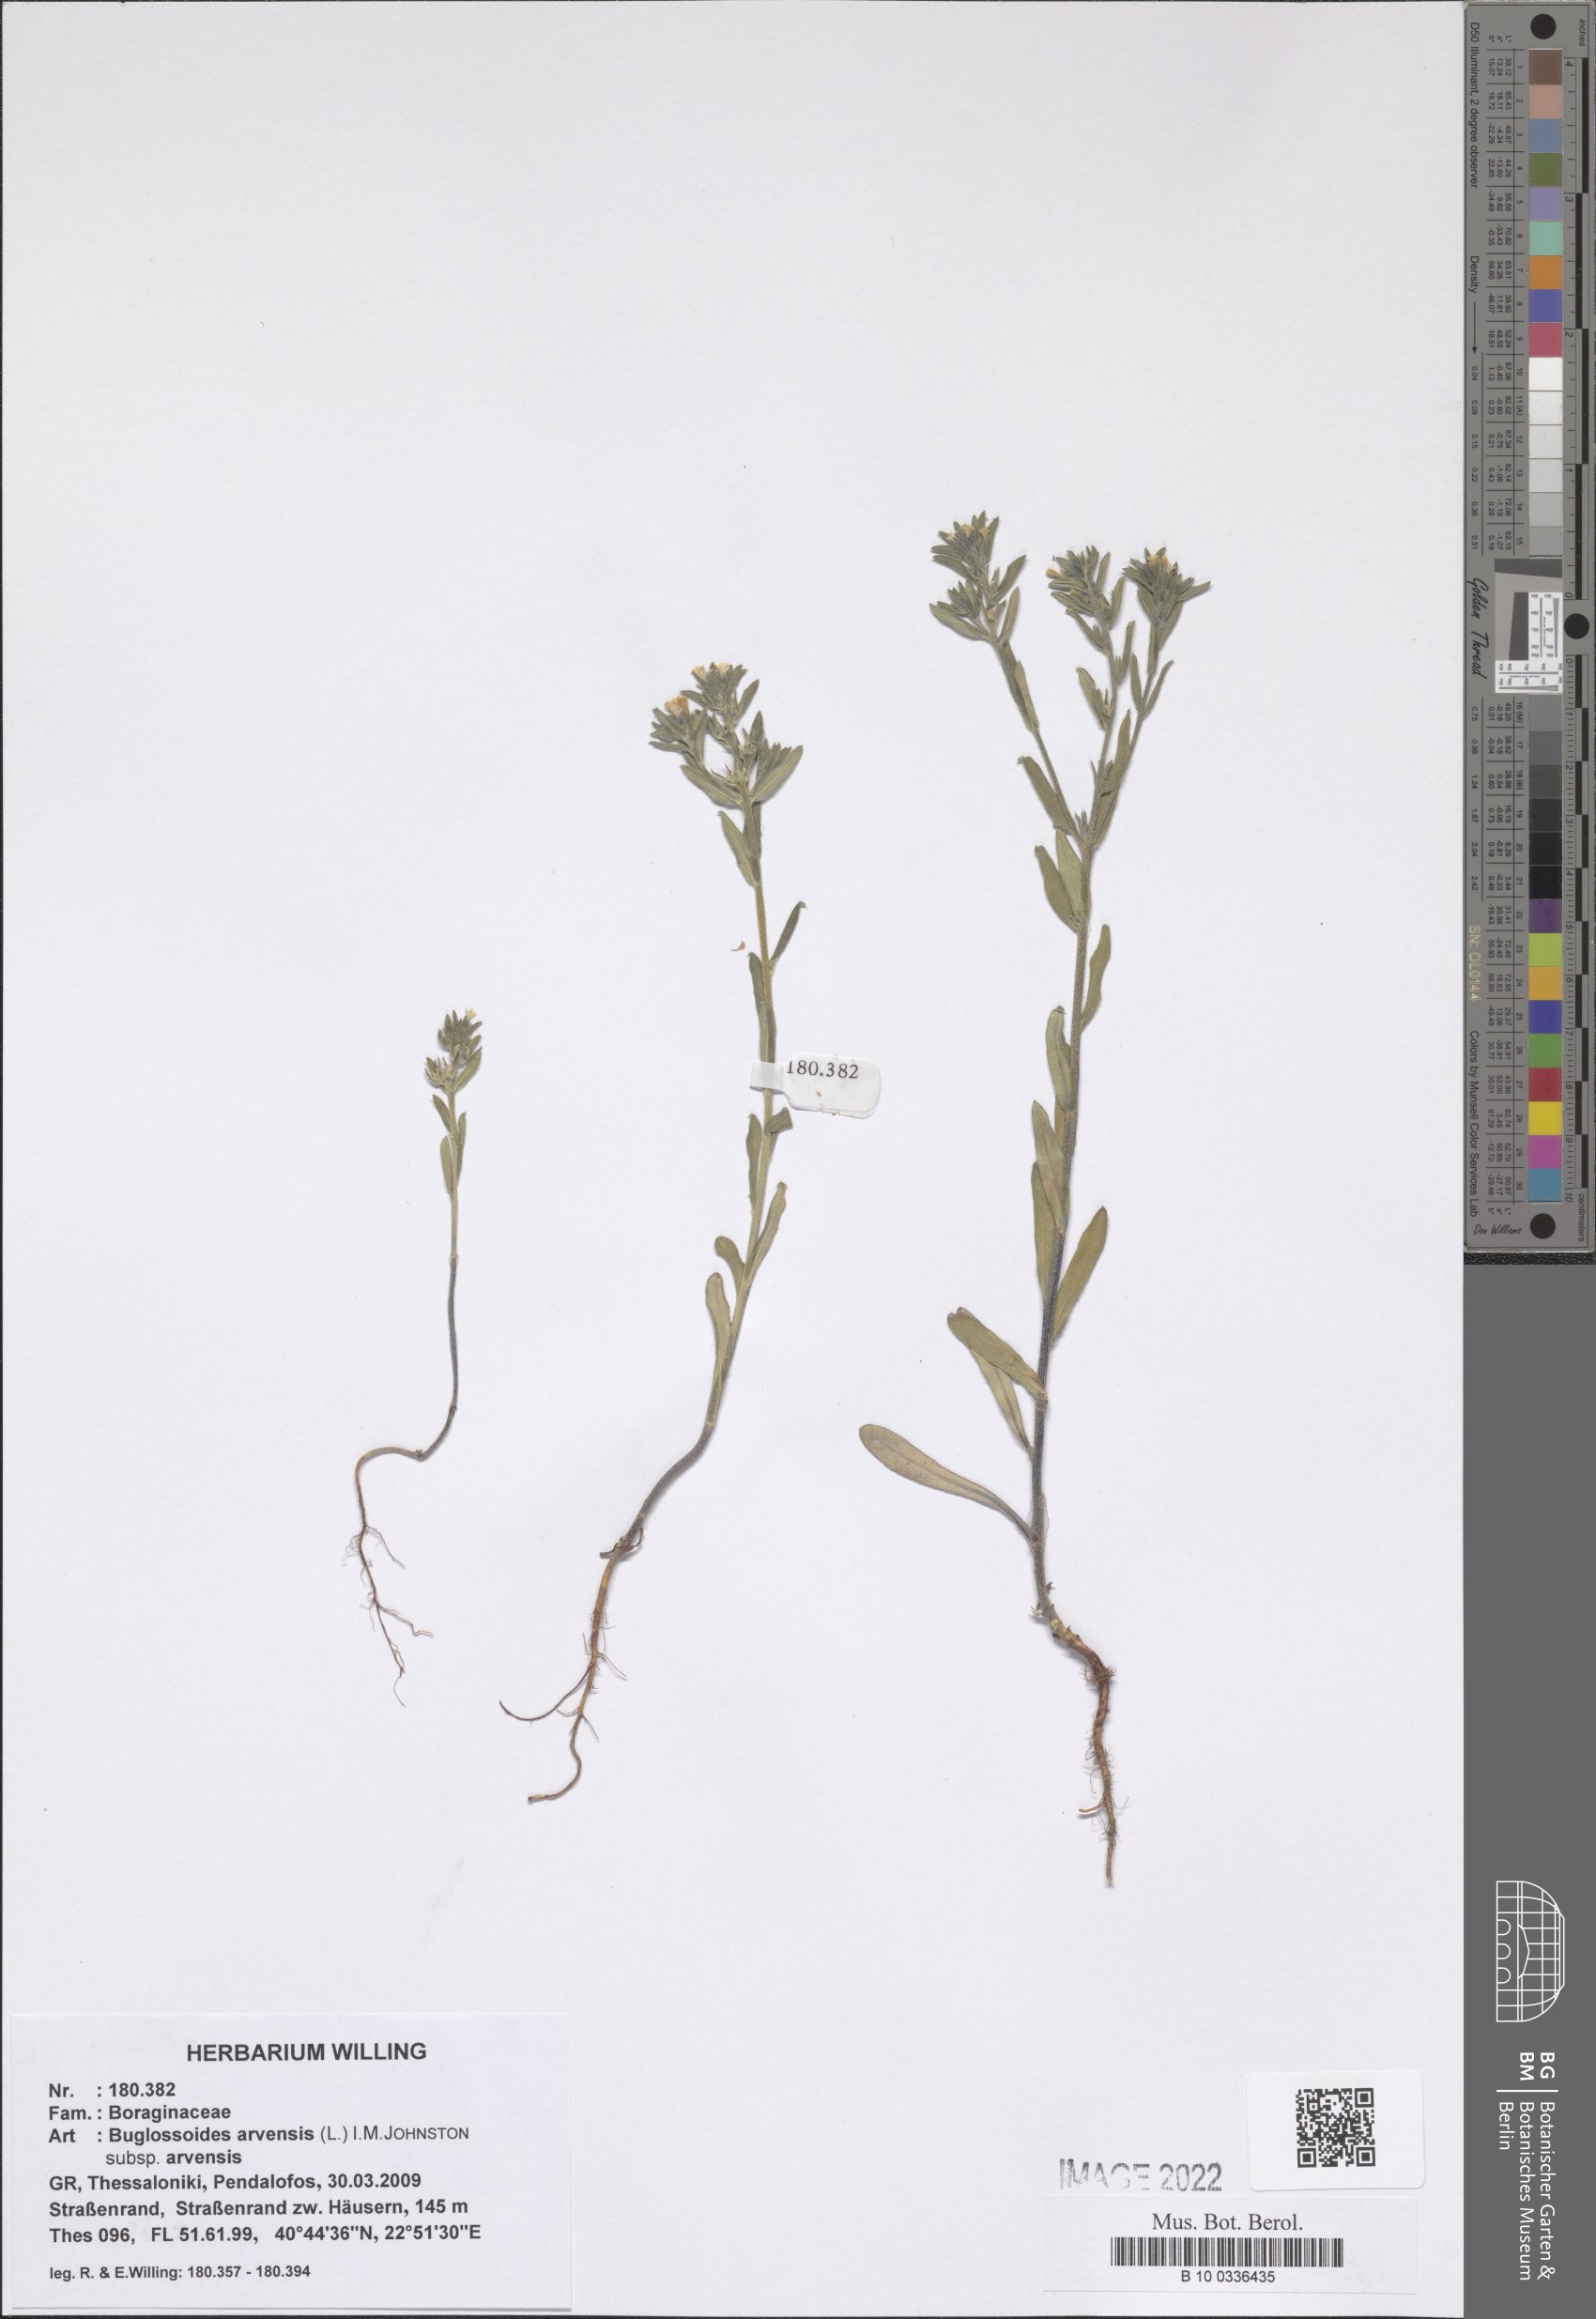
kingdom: Plantae
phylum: Tracheophyta
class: Magnoliopsida
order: Boraginales
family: Boraginaceae
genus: Buglossoides
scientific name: Buglossoides arvensis
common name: Corn gromwell
